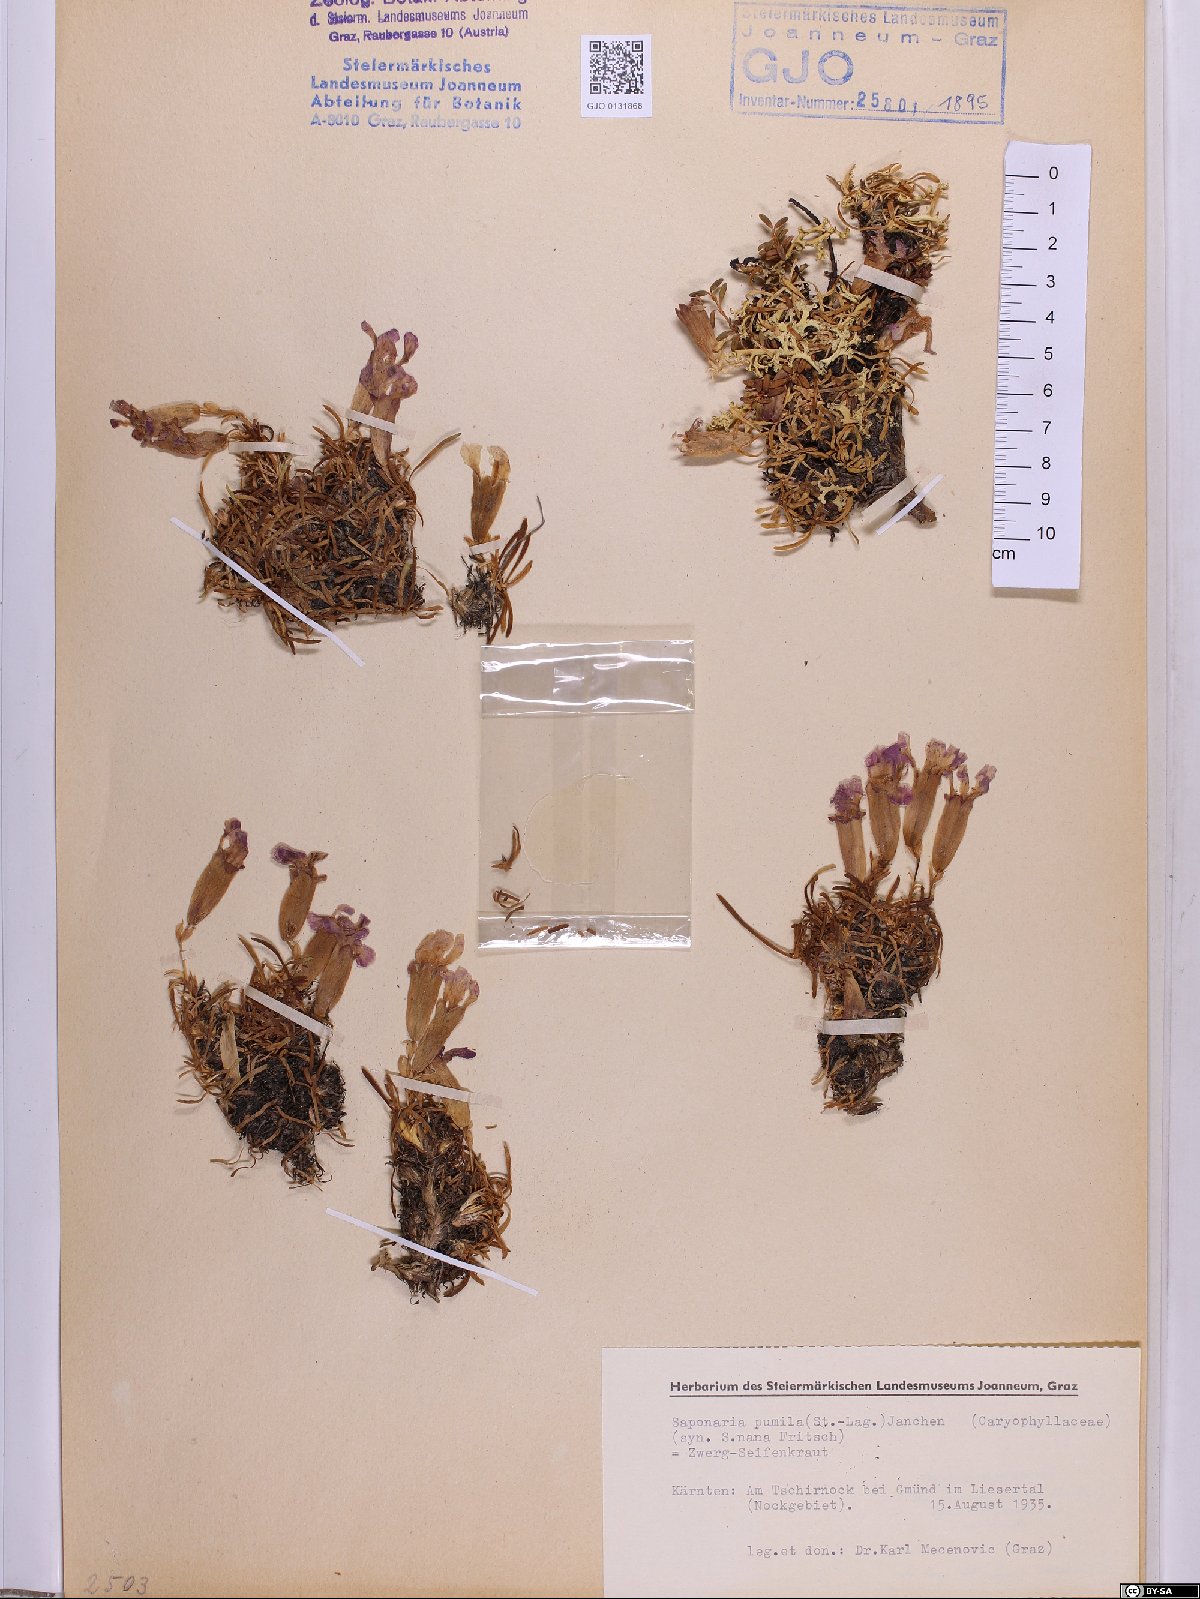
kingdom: Plantae
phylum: Tracheophyta
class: Magnoliopsida
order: Caryophyllales
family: Caryophyllaceae
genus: Saponaria
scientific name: Saponaria pumila
